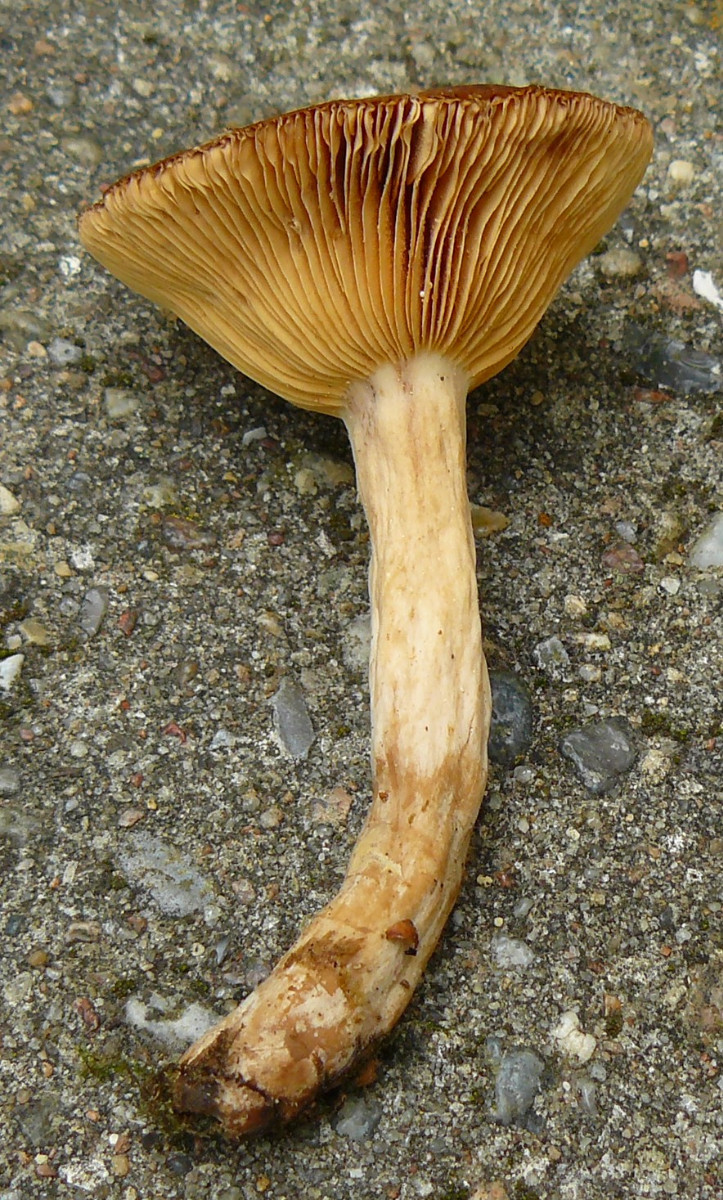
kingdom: Fungi
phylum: Basidiomycota
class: Agaricomycetes
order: Russulales
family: Russulaceae
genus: Lactarius
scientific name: Lactarius pterosporus
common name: vingesporet mælkehat
